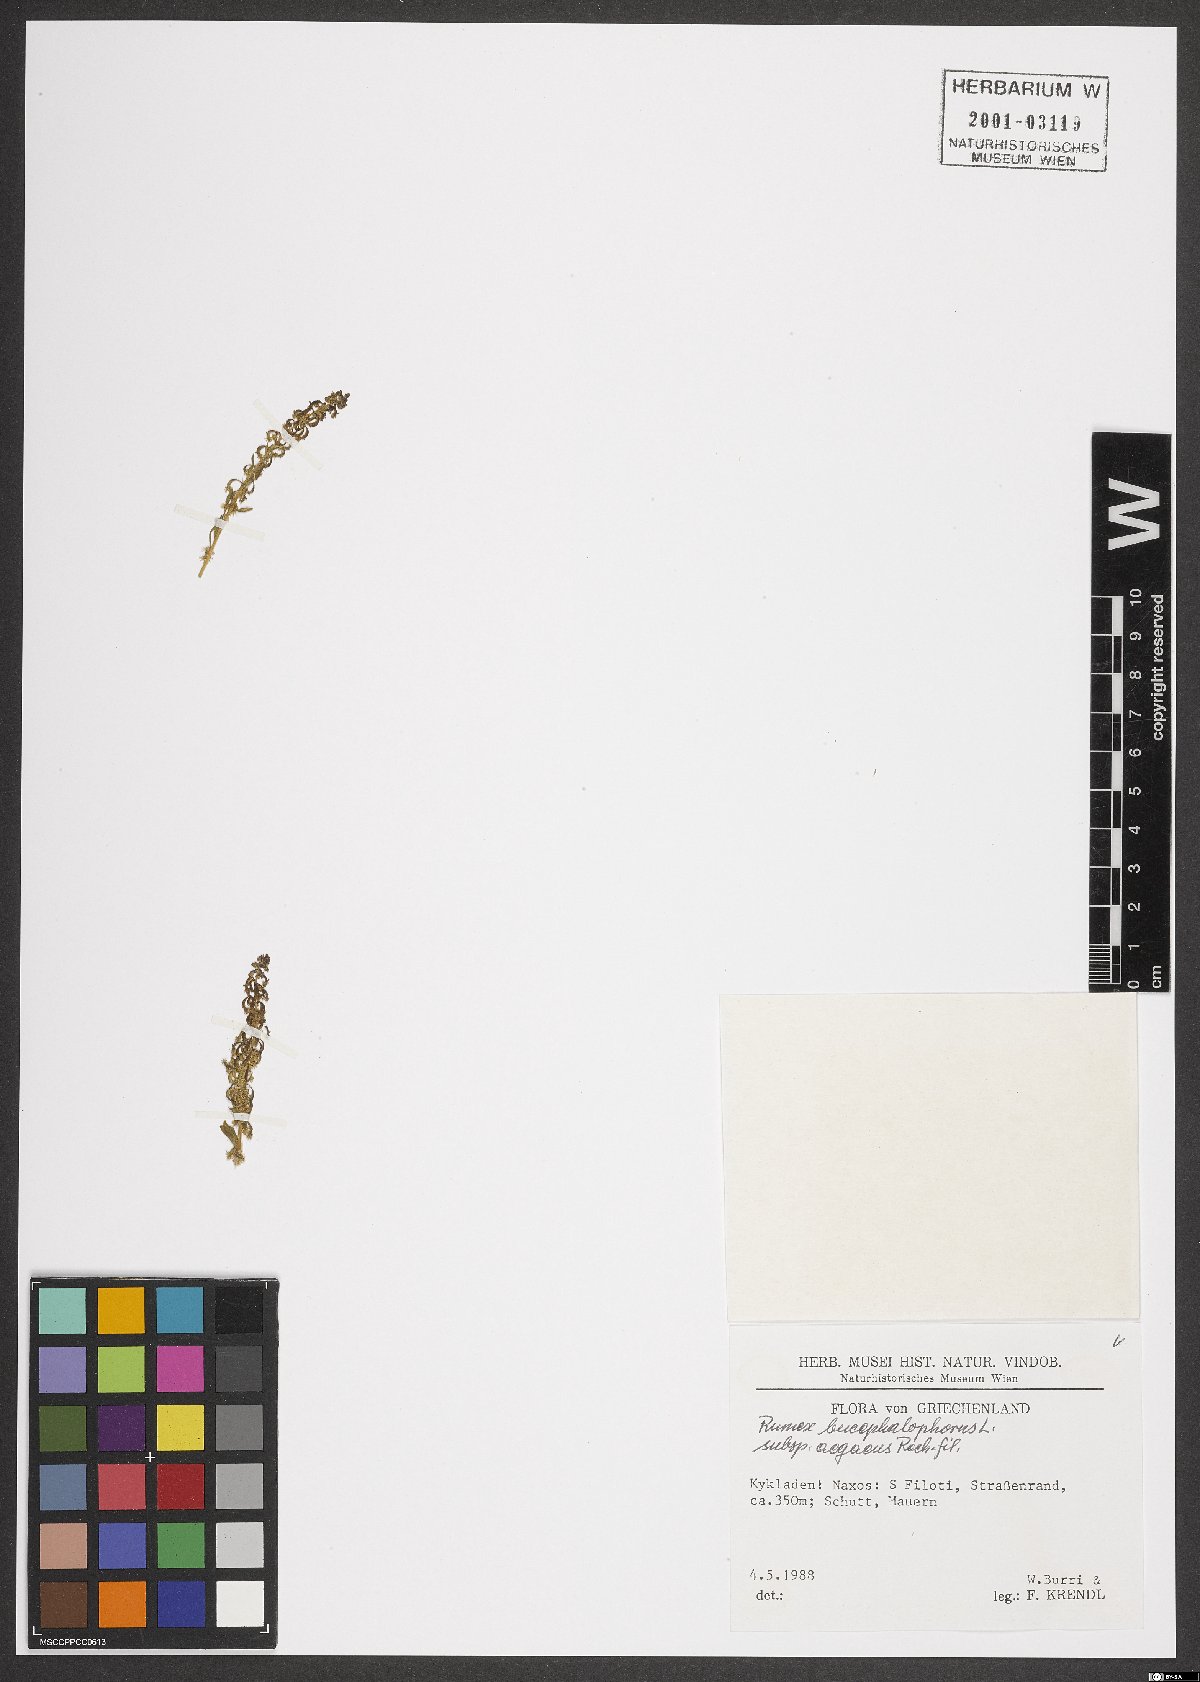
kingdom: Plantae
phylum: Tracheophyta
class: Magnoliopsida
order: Caryophyllales
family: Polygonaceae
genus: Rumex
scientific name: Rumex bucephalophorus
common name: Red dock
